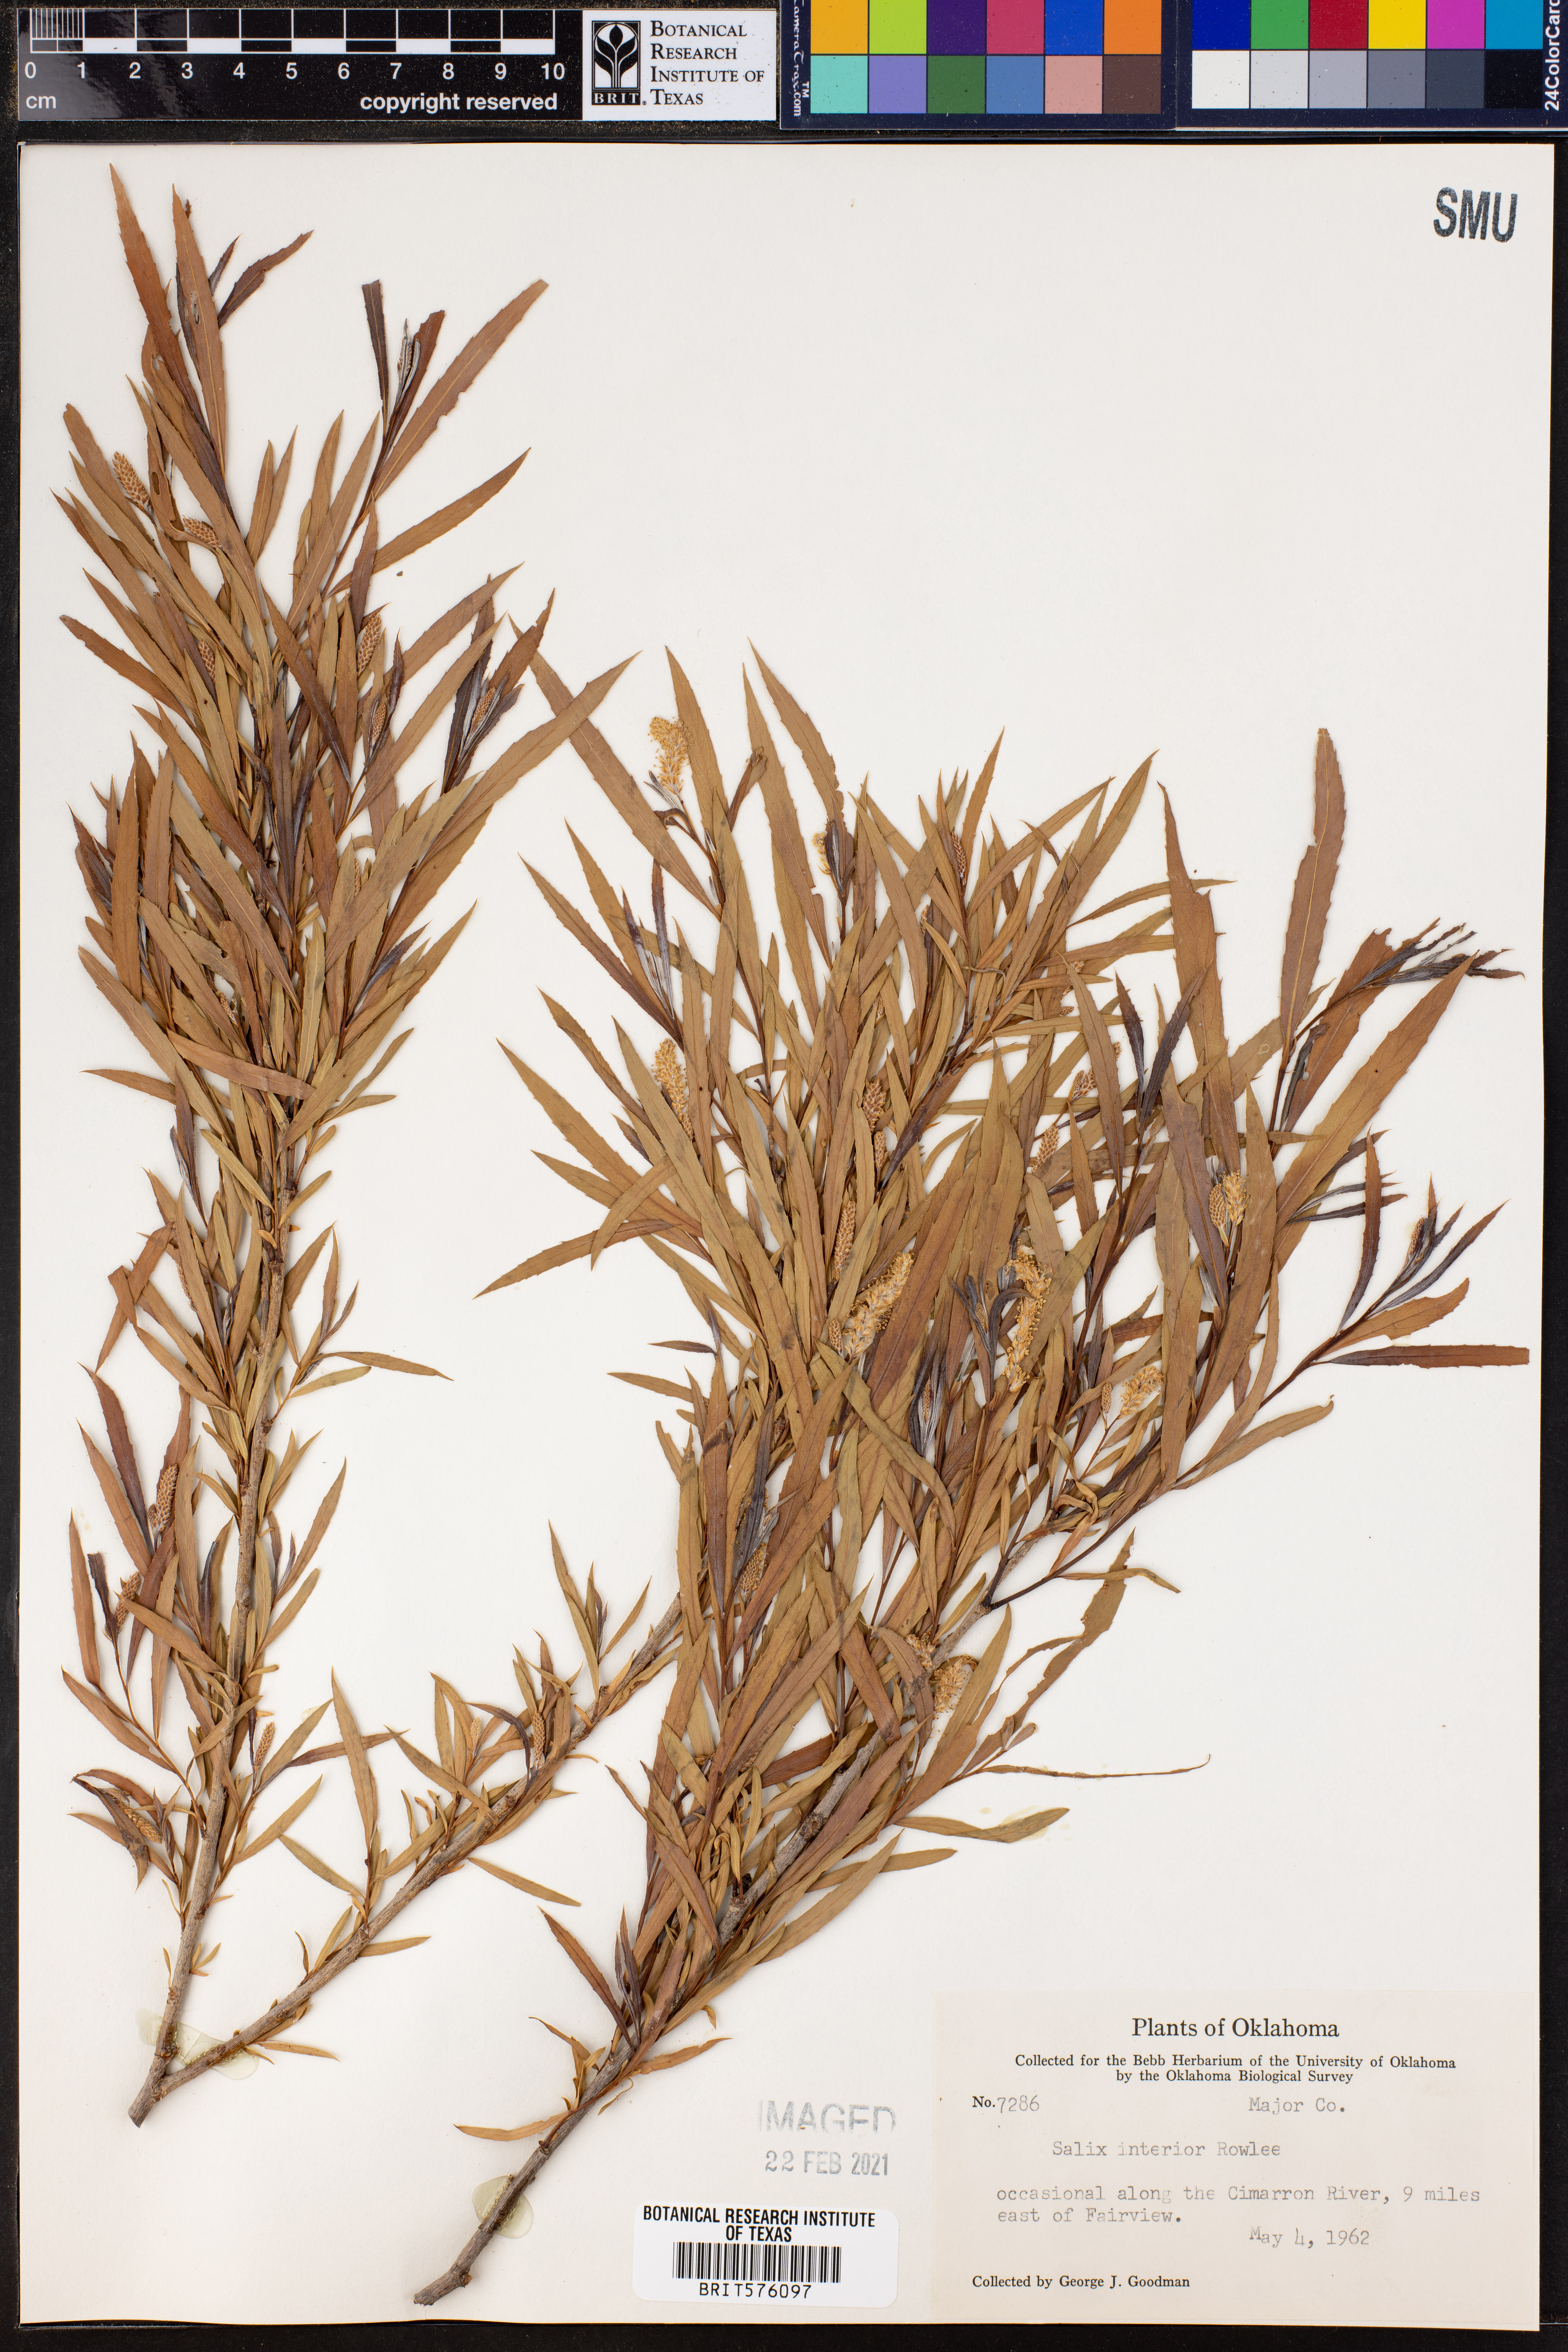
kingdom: Plantae
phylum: Tracheophyta
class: Magnoliopsida
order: Malpighiales
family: Salicaceae
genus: Salix
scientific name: Salix interior
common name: Sandbar willow
